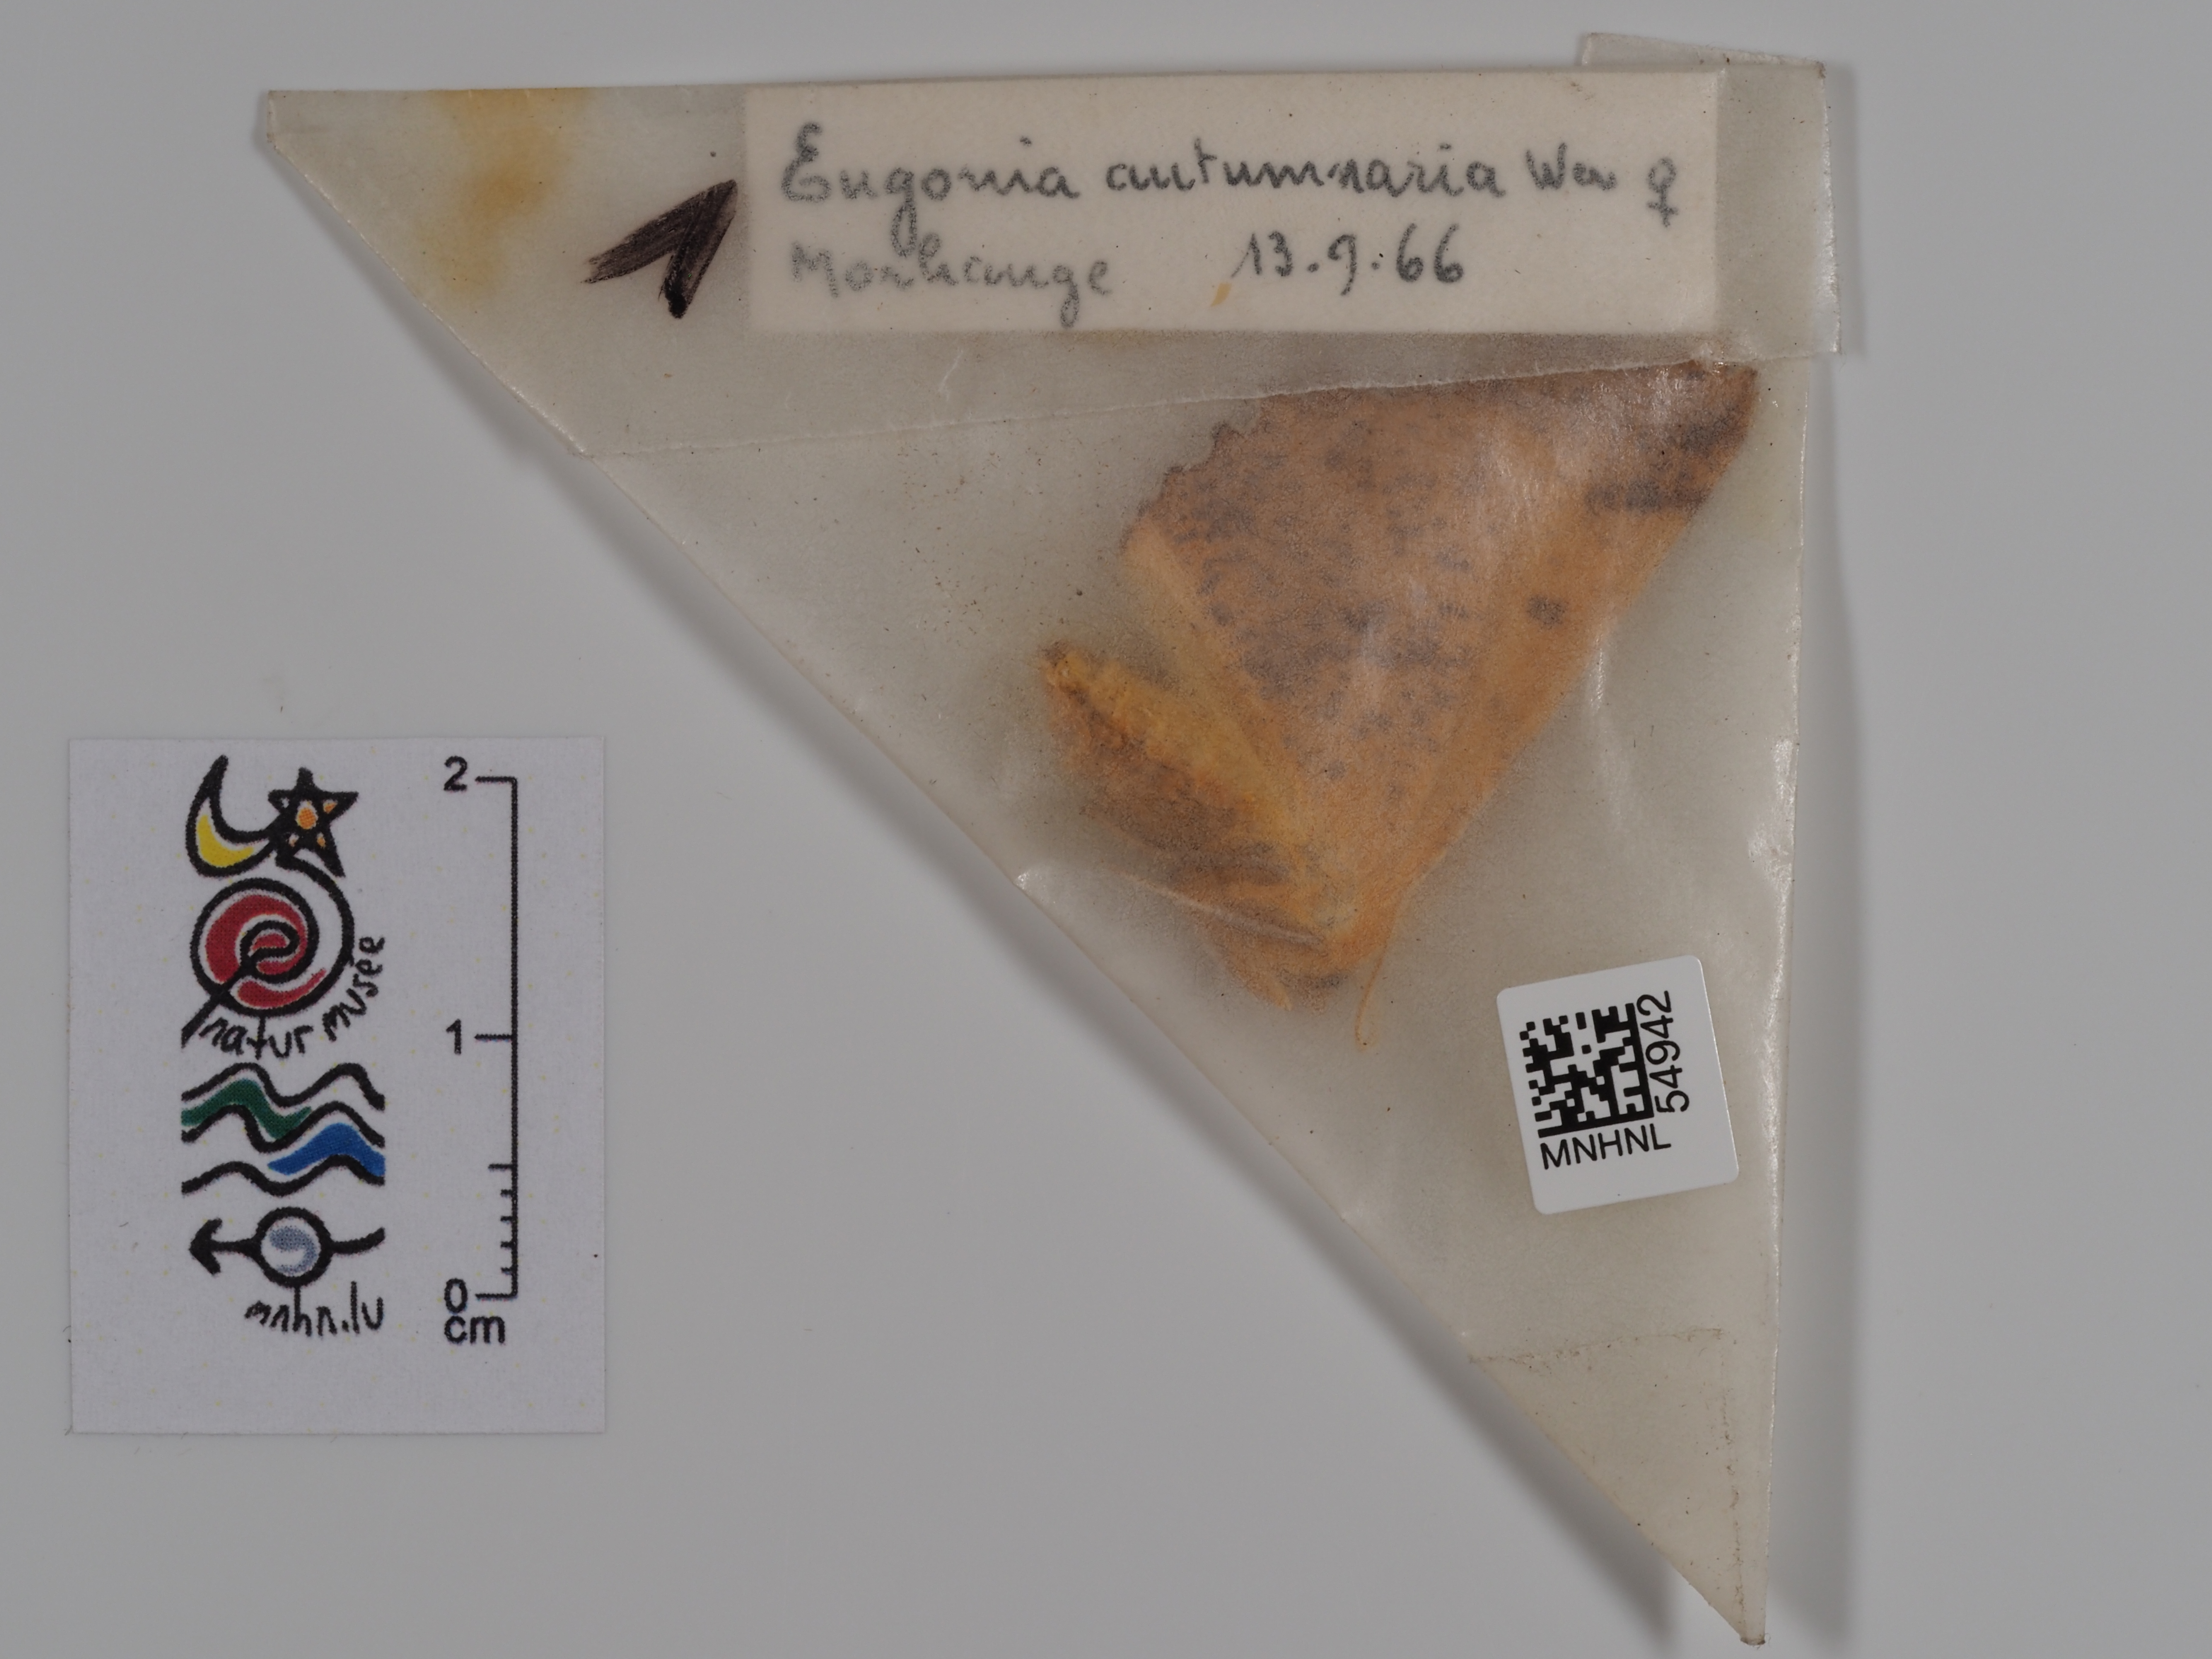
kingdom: Animalia
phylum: Arthropoda
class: Insecta
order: Lepidoptera
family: Geometridae
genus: Ennomos
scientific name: Ennomos autumnaria
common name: Large thorn
